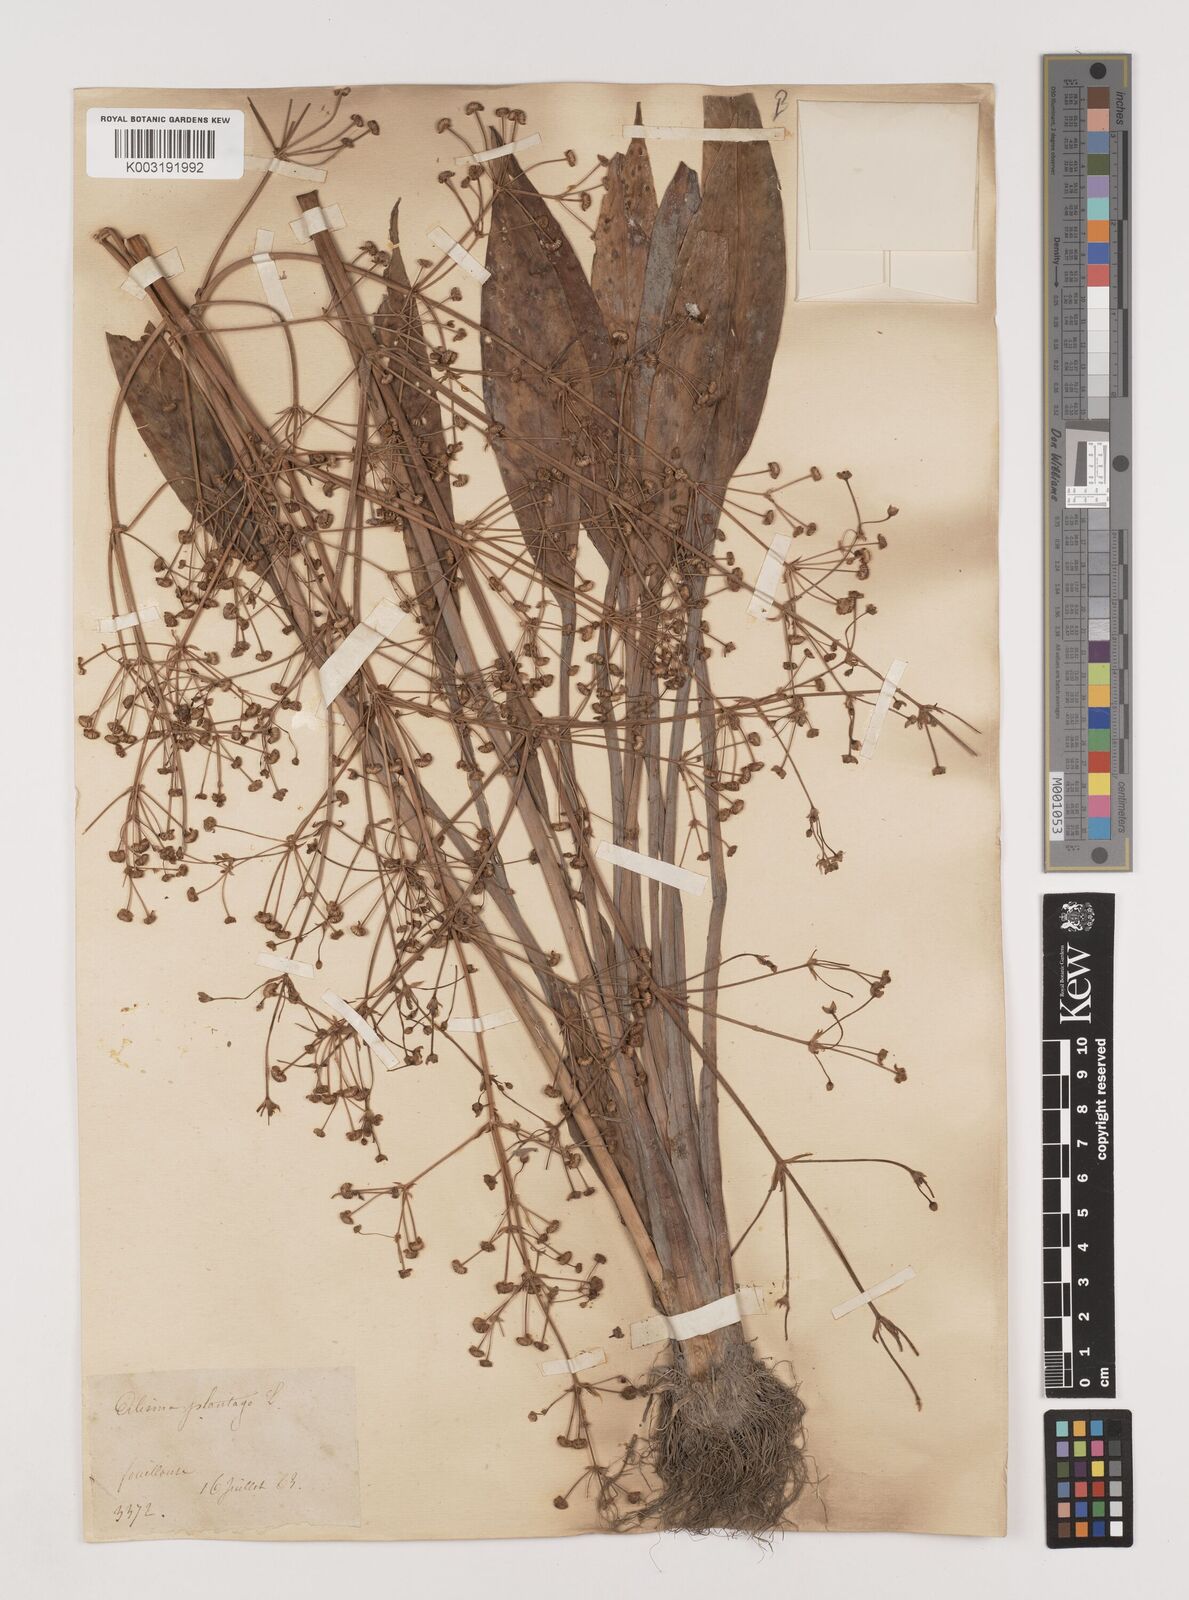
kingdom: Plantae
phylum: Tracheophyta
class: Liliopsida
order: Alismatales
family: Alismataceae
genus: Alisma
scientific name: Alisma lanceolatum
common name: Narrow-leaved water-plantain
